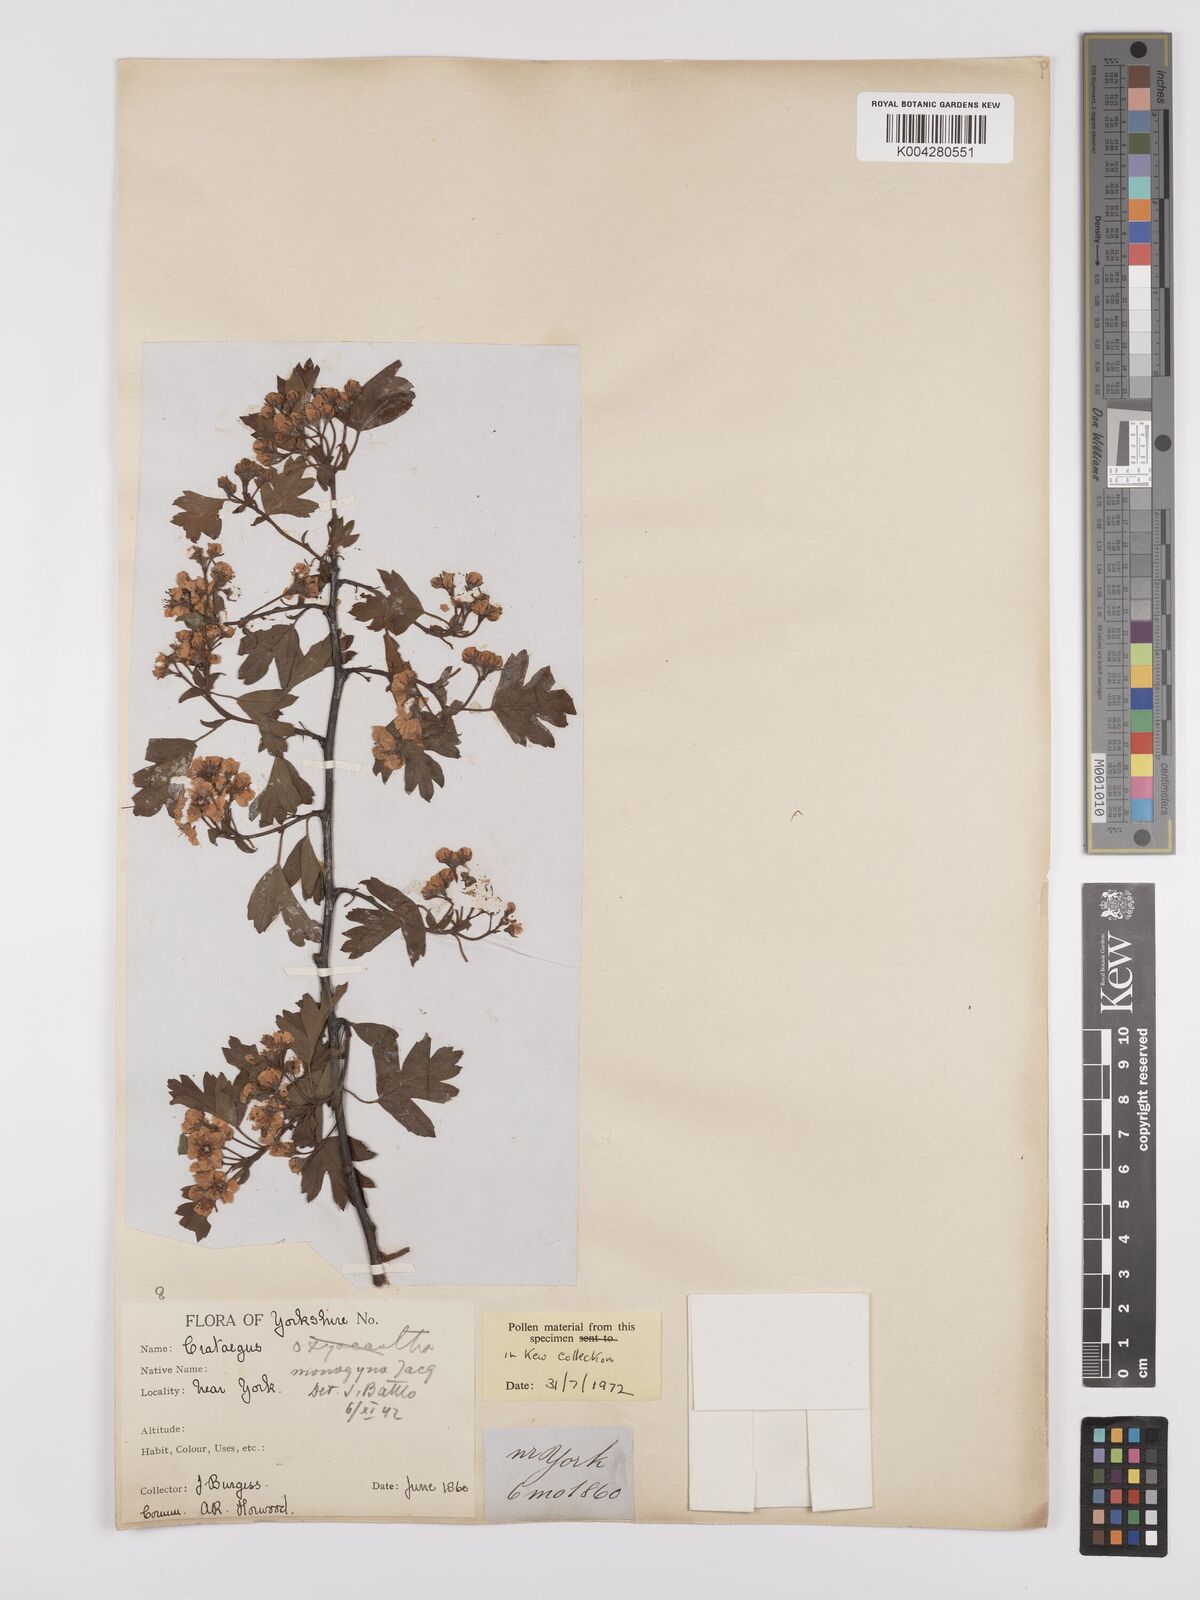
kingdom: Plantae
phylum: Tracheophyta
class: Magnoliopsida
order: Rosales
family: Rosaceae
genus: Crataegus
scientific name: Crataegus monogyna
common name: Hawthorn
